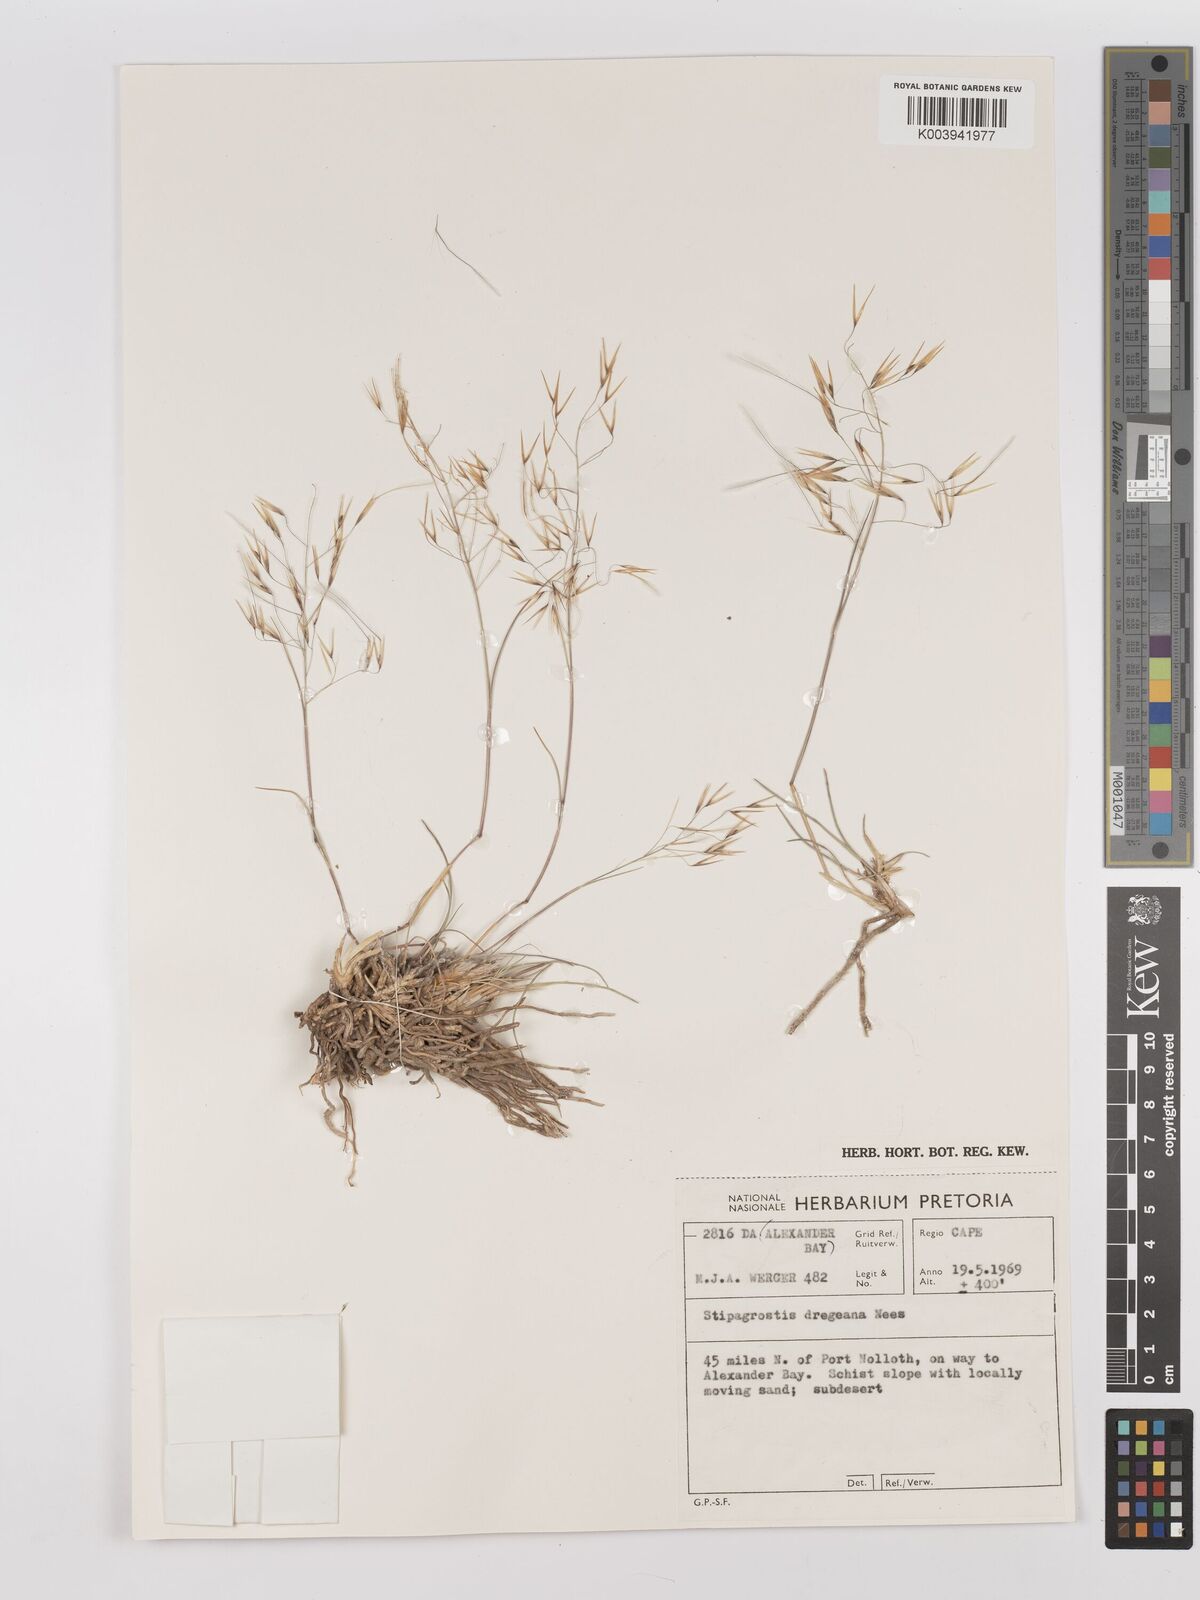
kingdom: Plantae
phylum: Tracheophyta
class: Liliopsida
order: Poales
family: Poaceae
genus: Stipagrostis
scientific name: Stipagrostis dregeana
